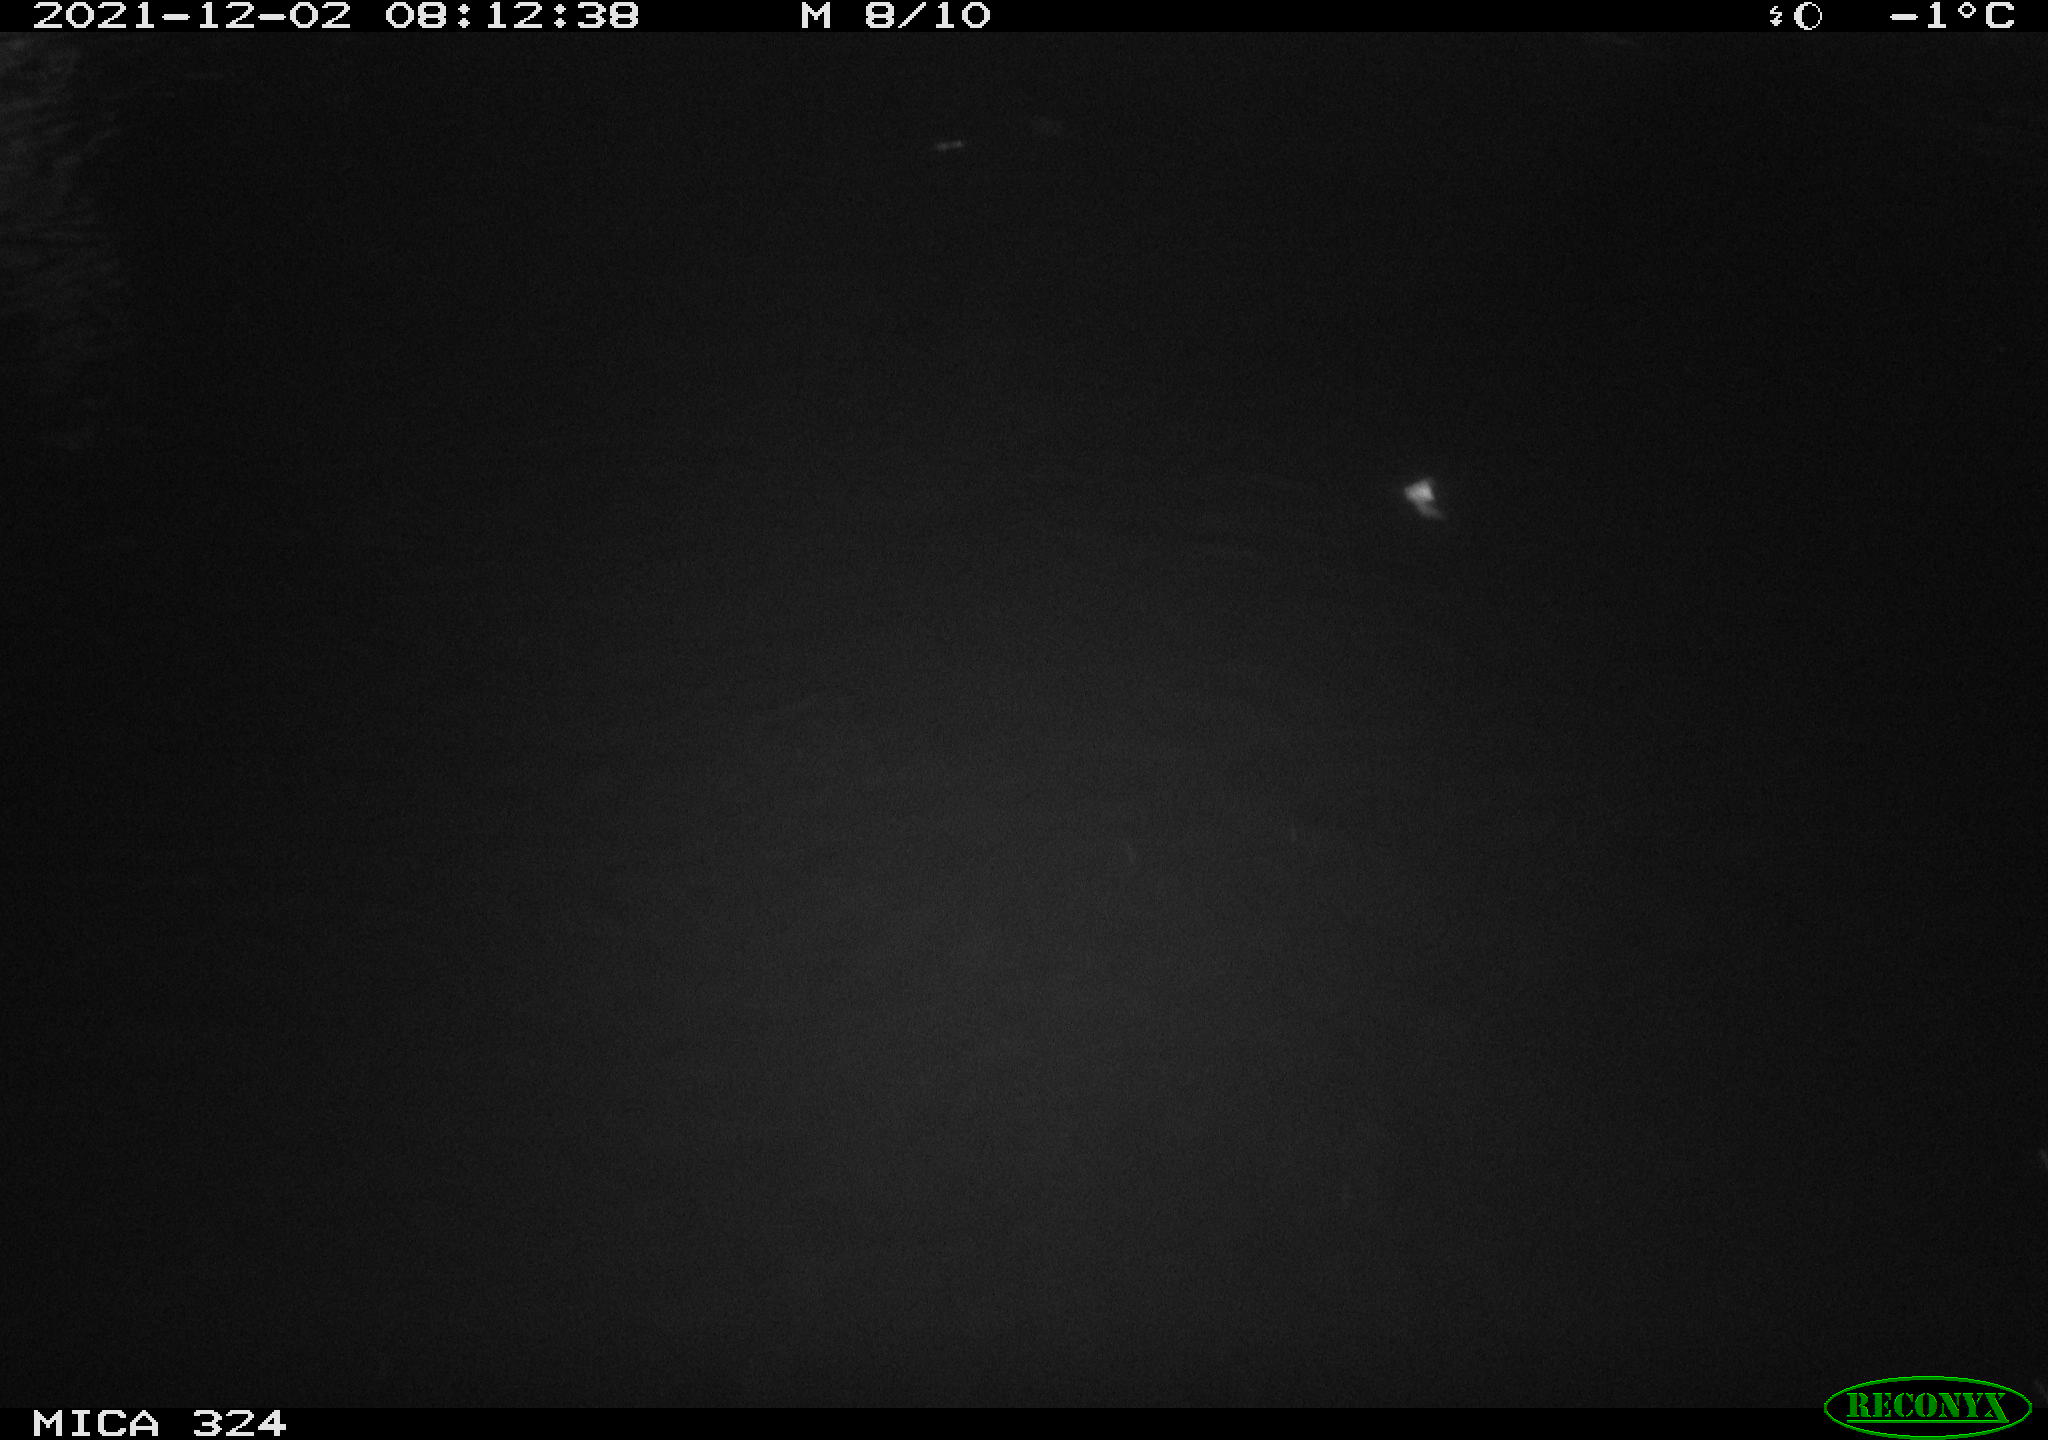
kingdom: Animalia
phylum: Chordata
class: Mammalia
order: Rodentia
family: Cricetidae
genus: Ondatra
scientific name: Ondatra zibethicus
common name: Muskrat
